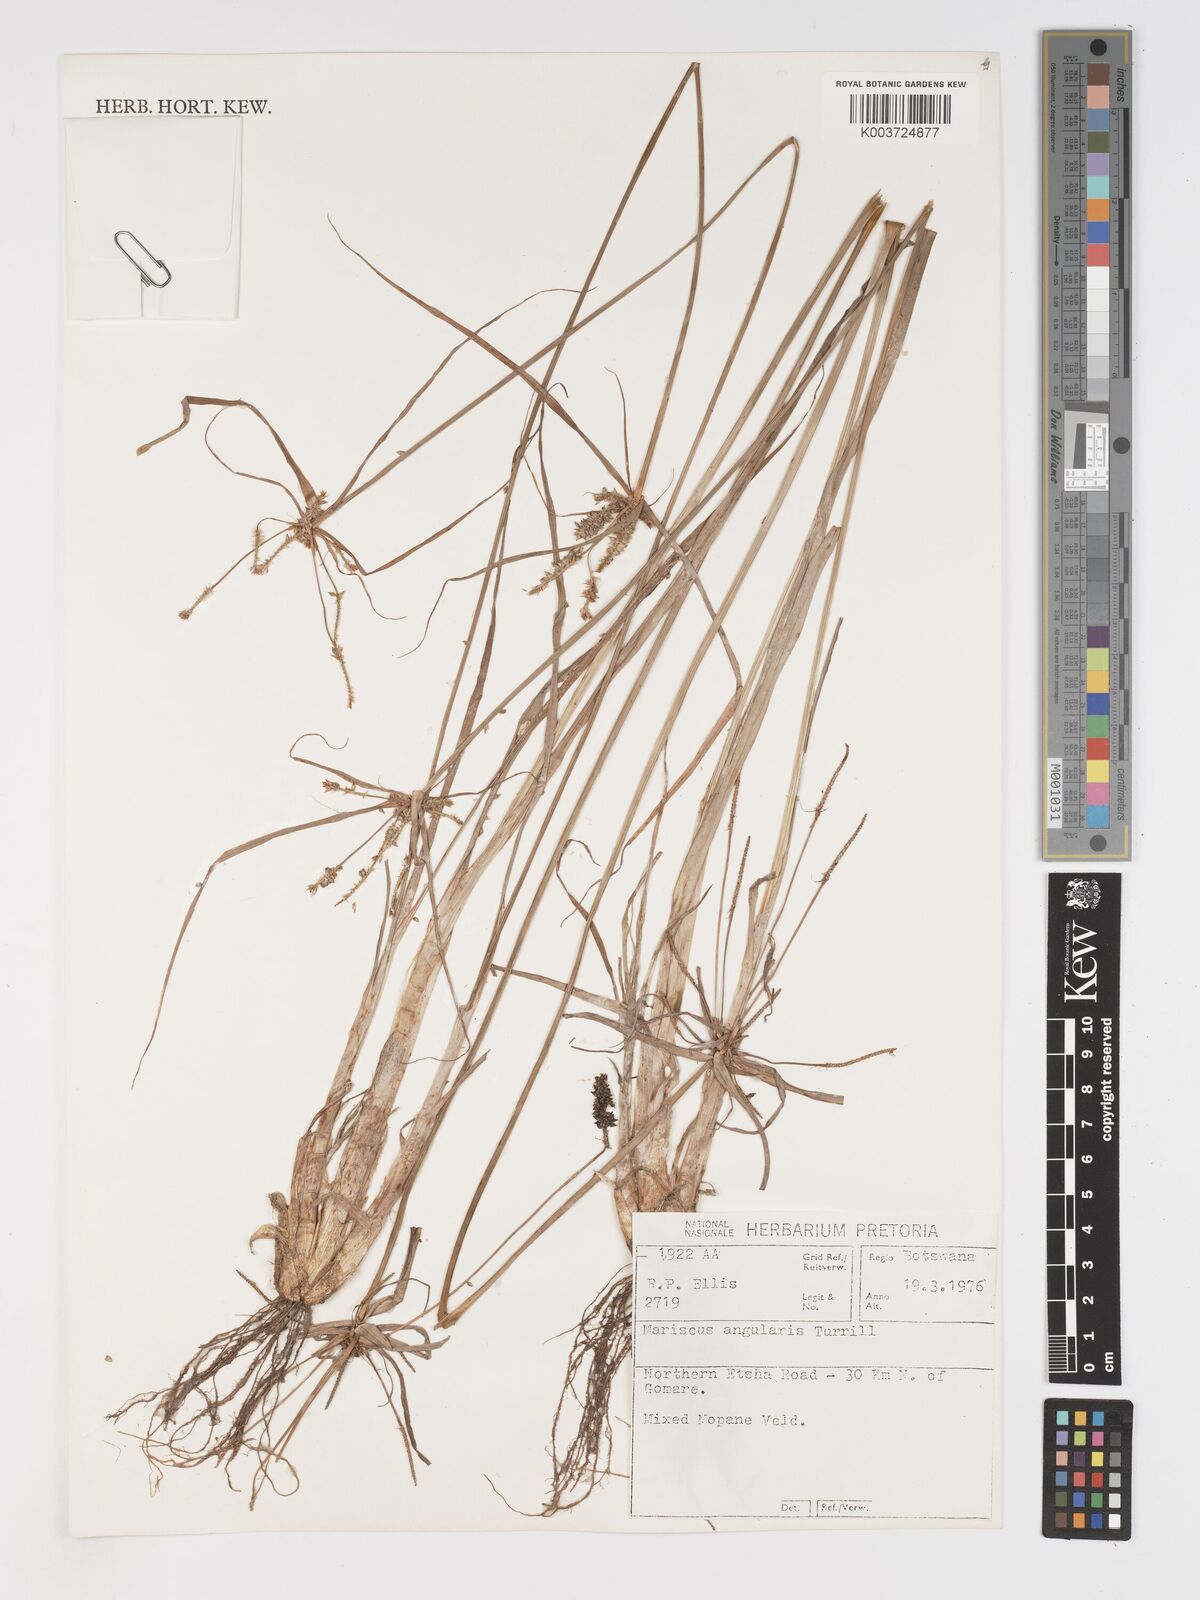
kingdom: Plantae
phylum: Tracheophyta
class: Liliopsida
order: Poales
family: Cyperaceae
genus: Cyperus
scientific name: Cyperus chersinus
